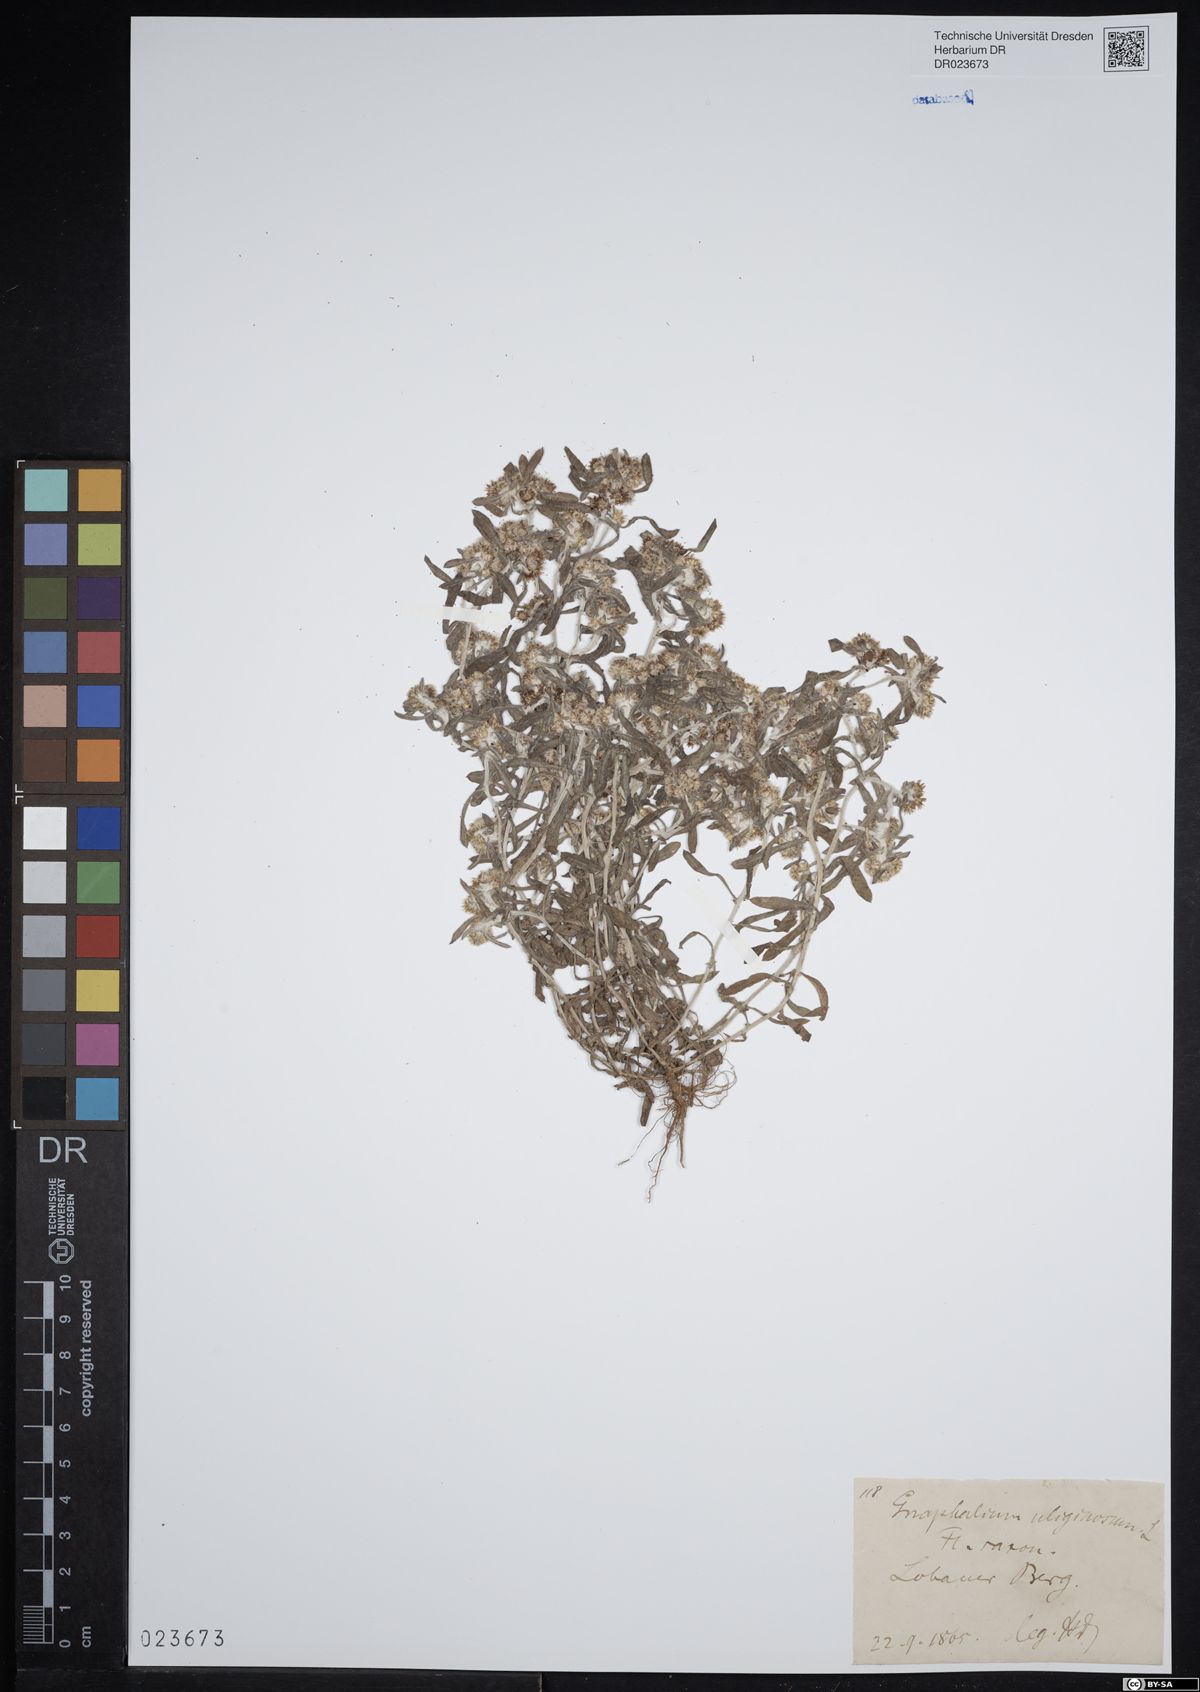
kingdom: Plantae
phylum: Tracheophyta
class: Magnoliopsida
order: Asterales
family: Asteraceae
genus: Gnaphalium
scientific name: Gnaphalium uliginosum
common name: Marsh cudweed
